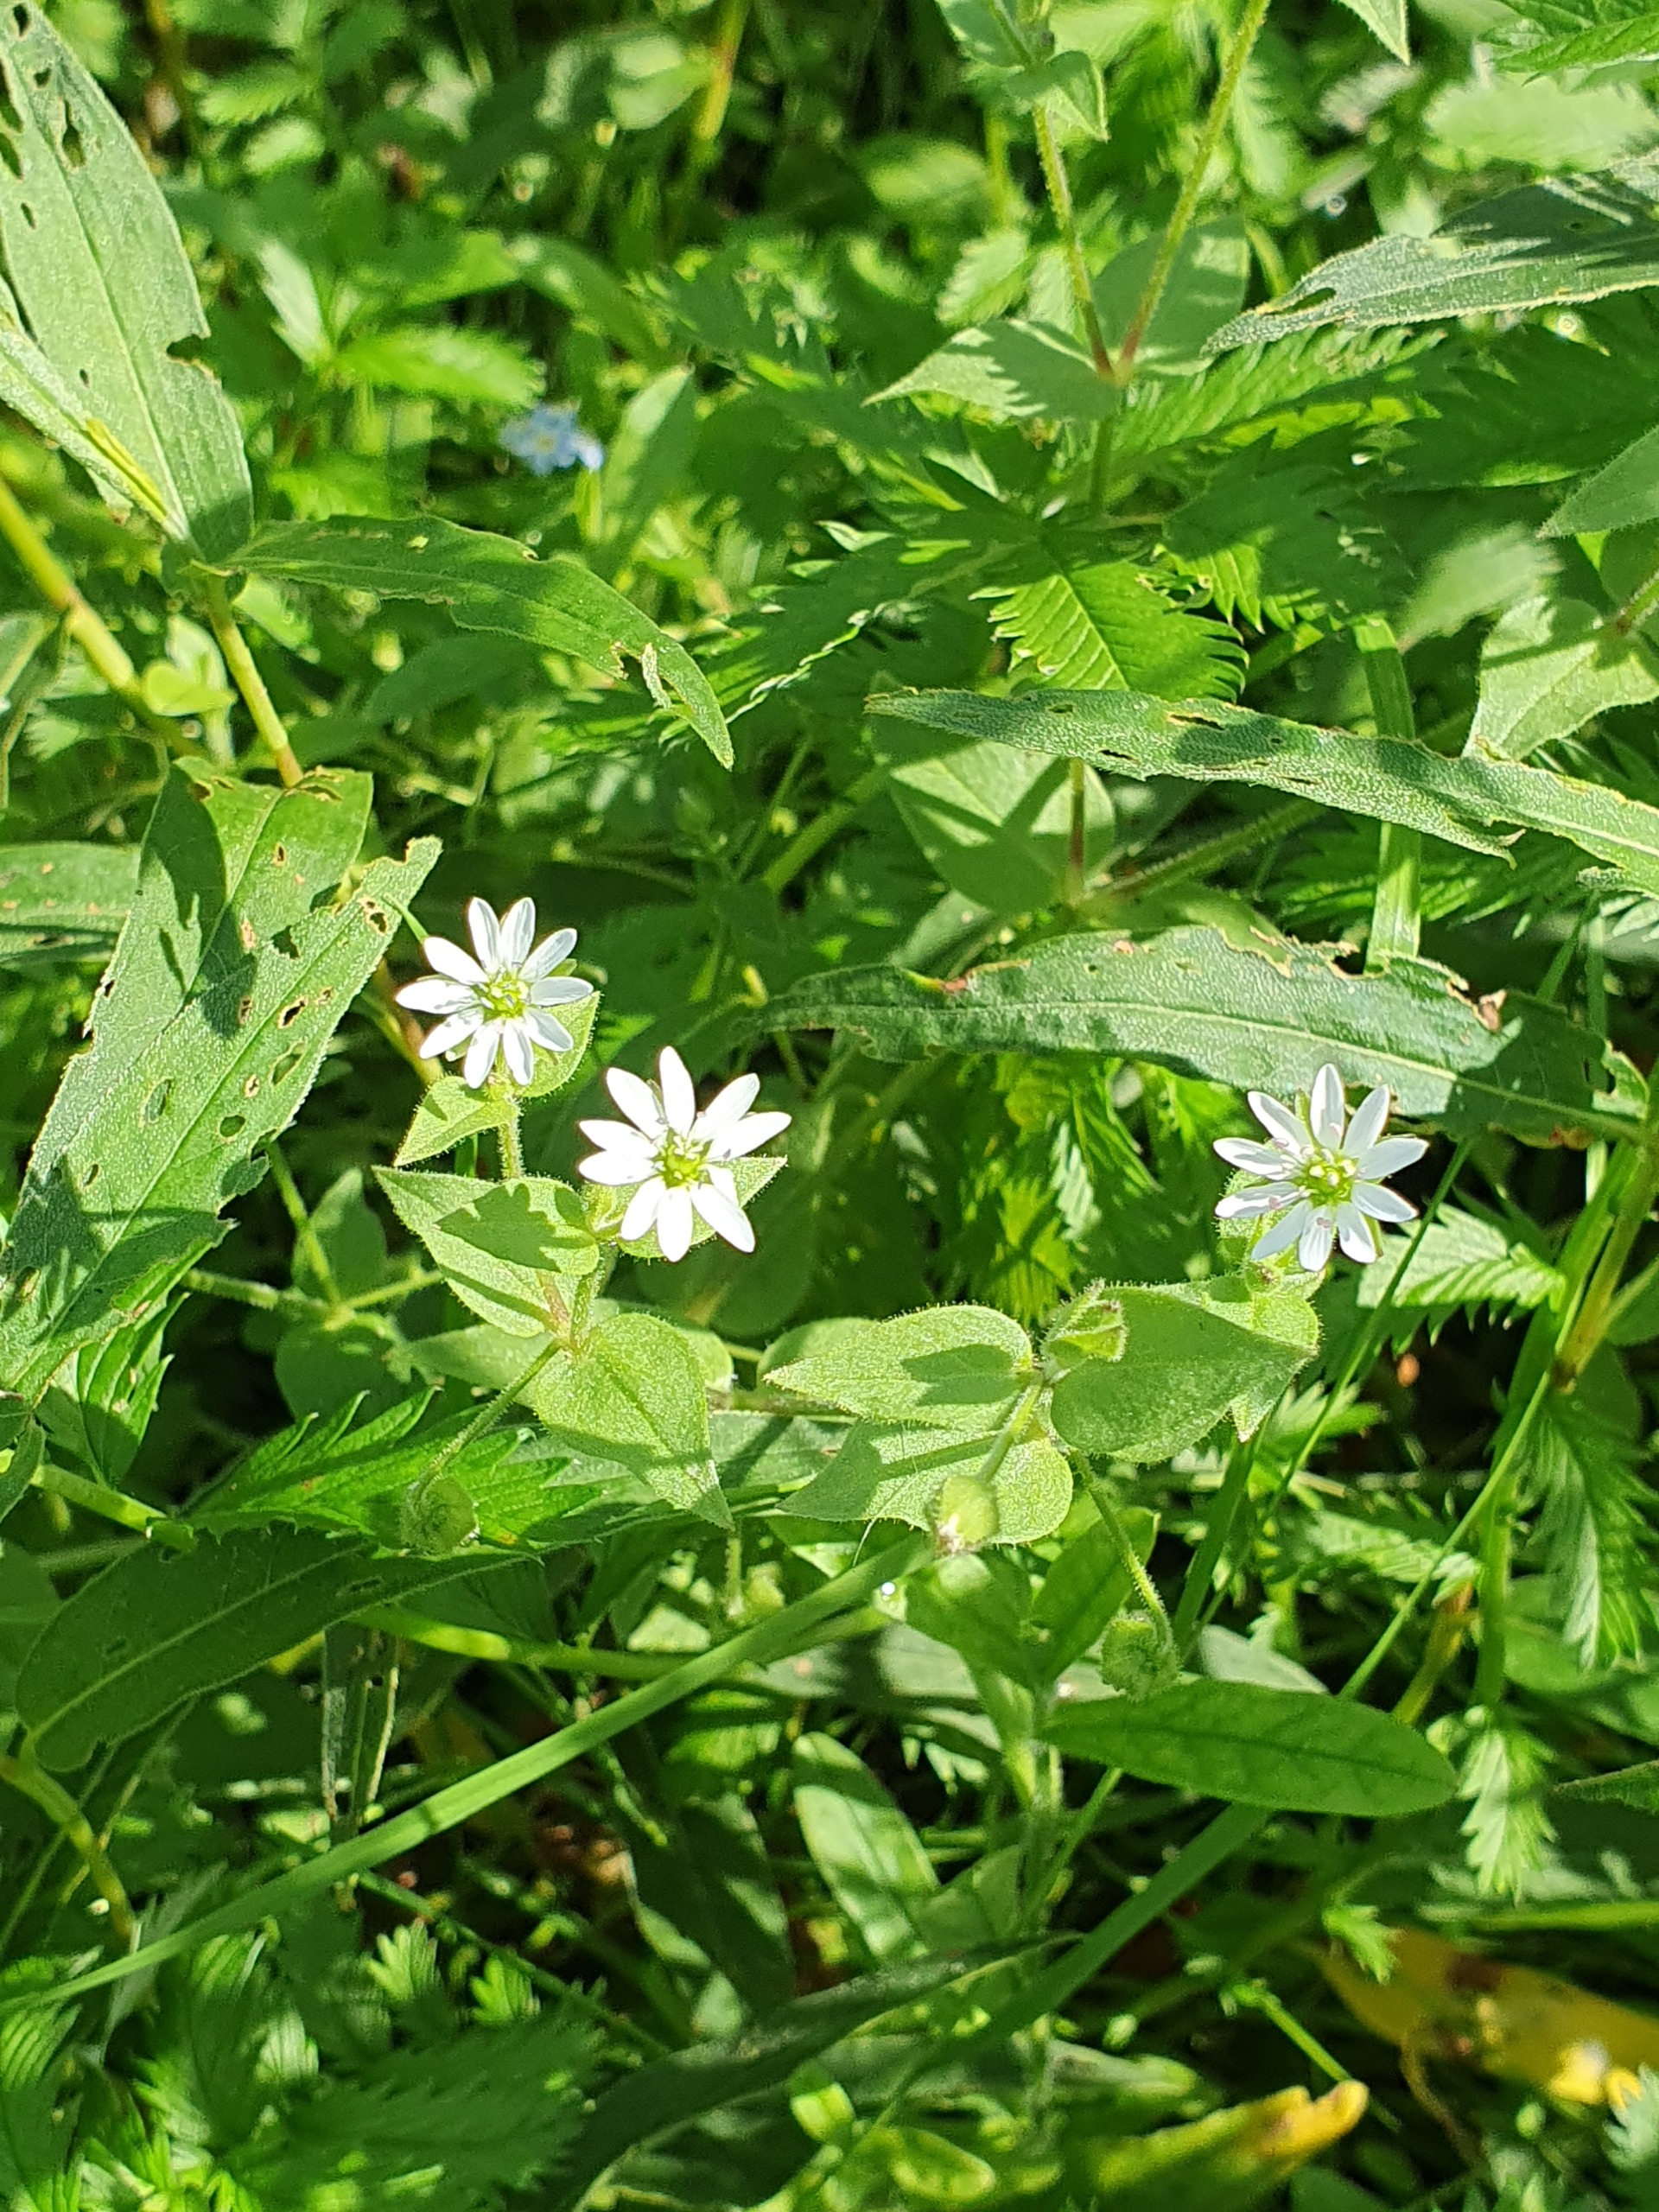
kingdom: Plantae
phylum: Tracheophyta
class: Magnoliopsida
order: Caryophyllales
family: Caryophyllaceae
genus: Stellaria
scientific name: Stellaria aquatica
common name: Kløvkrone
